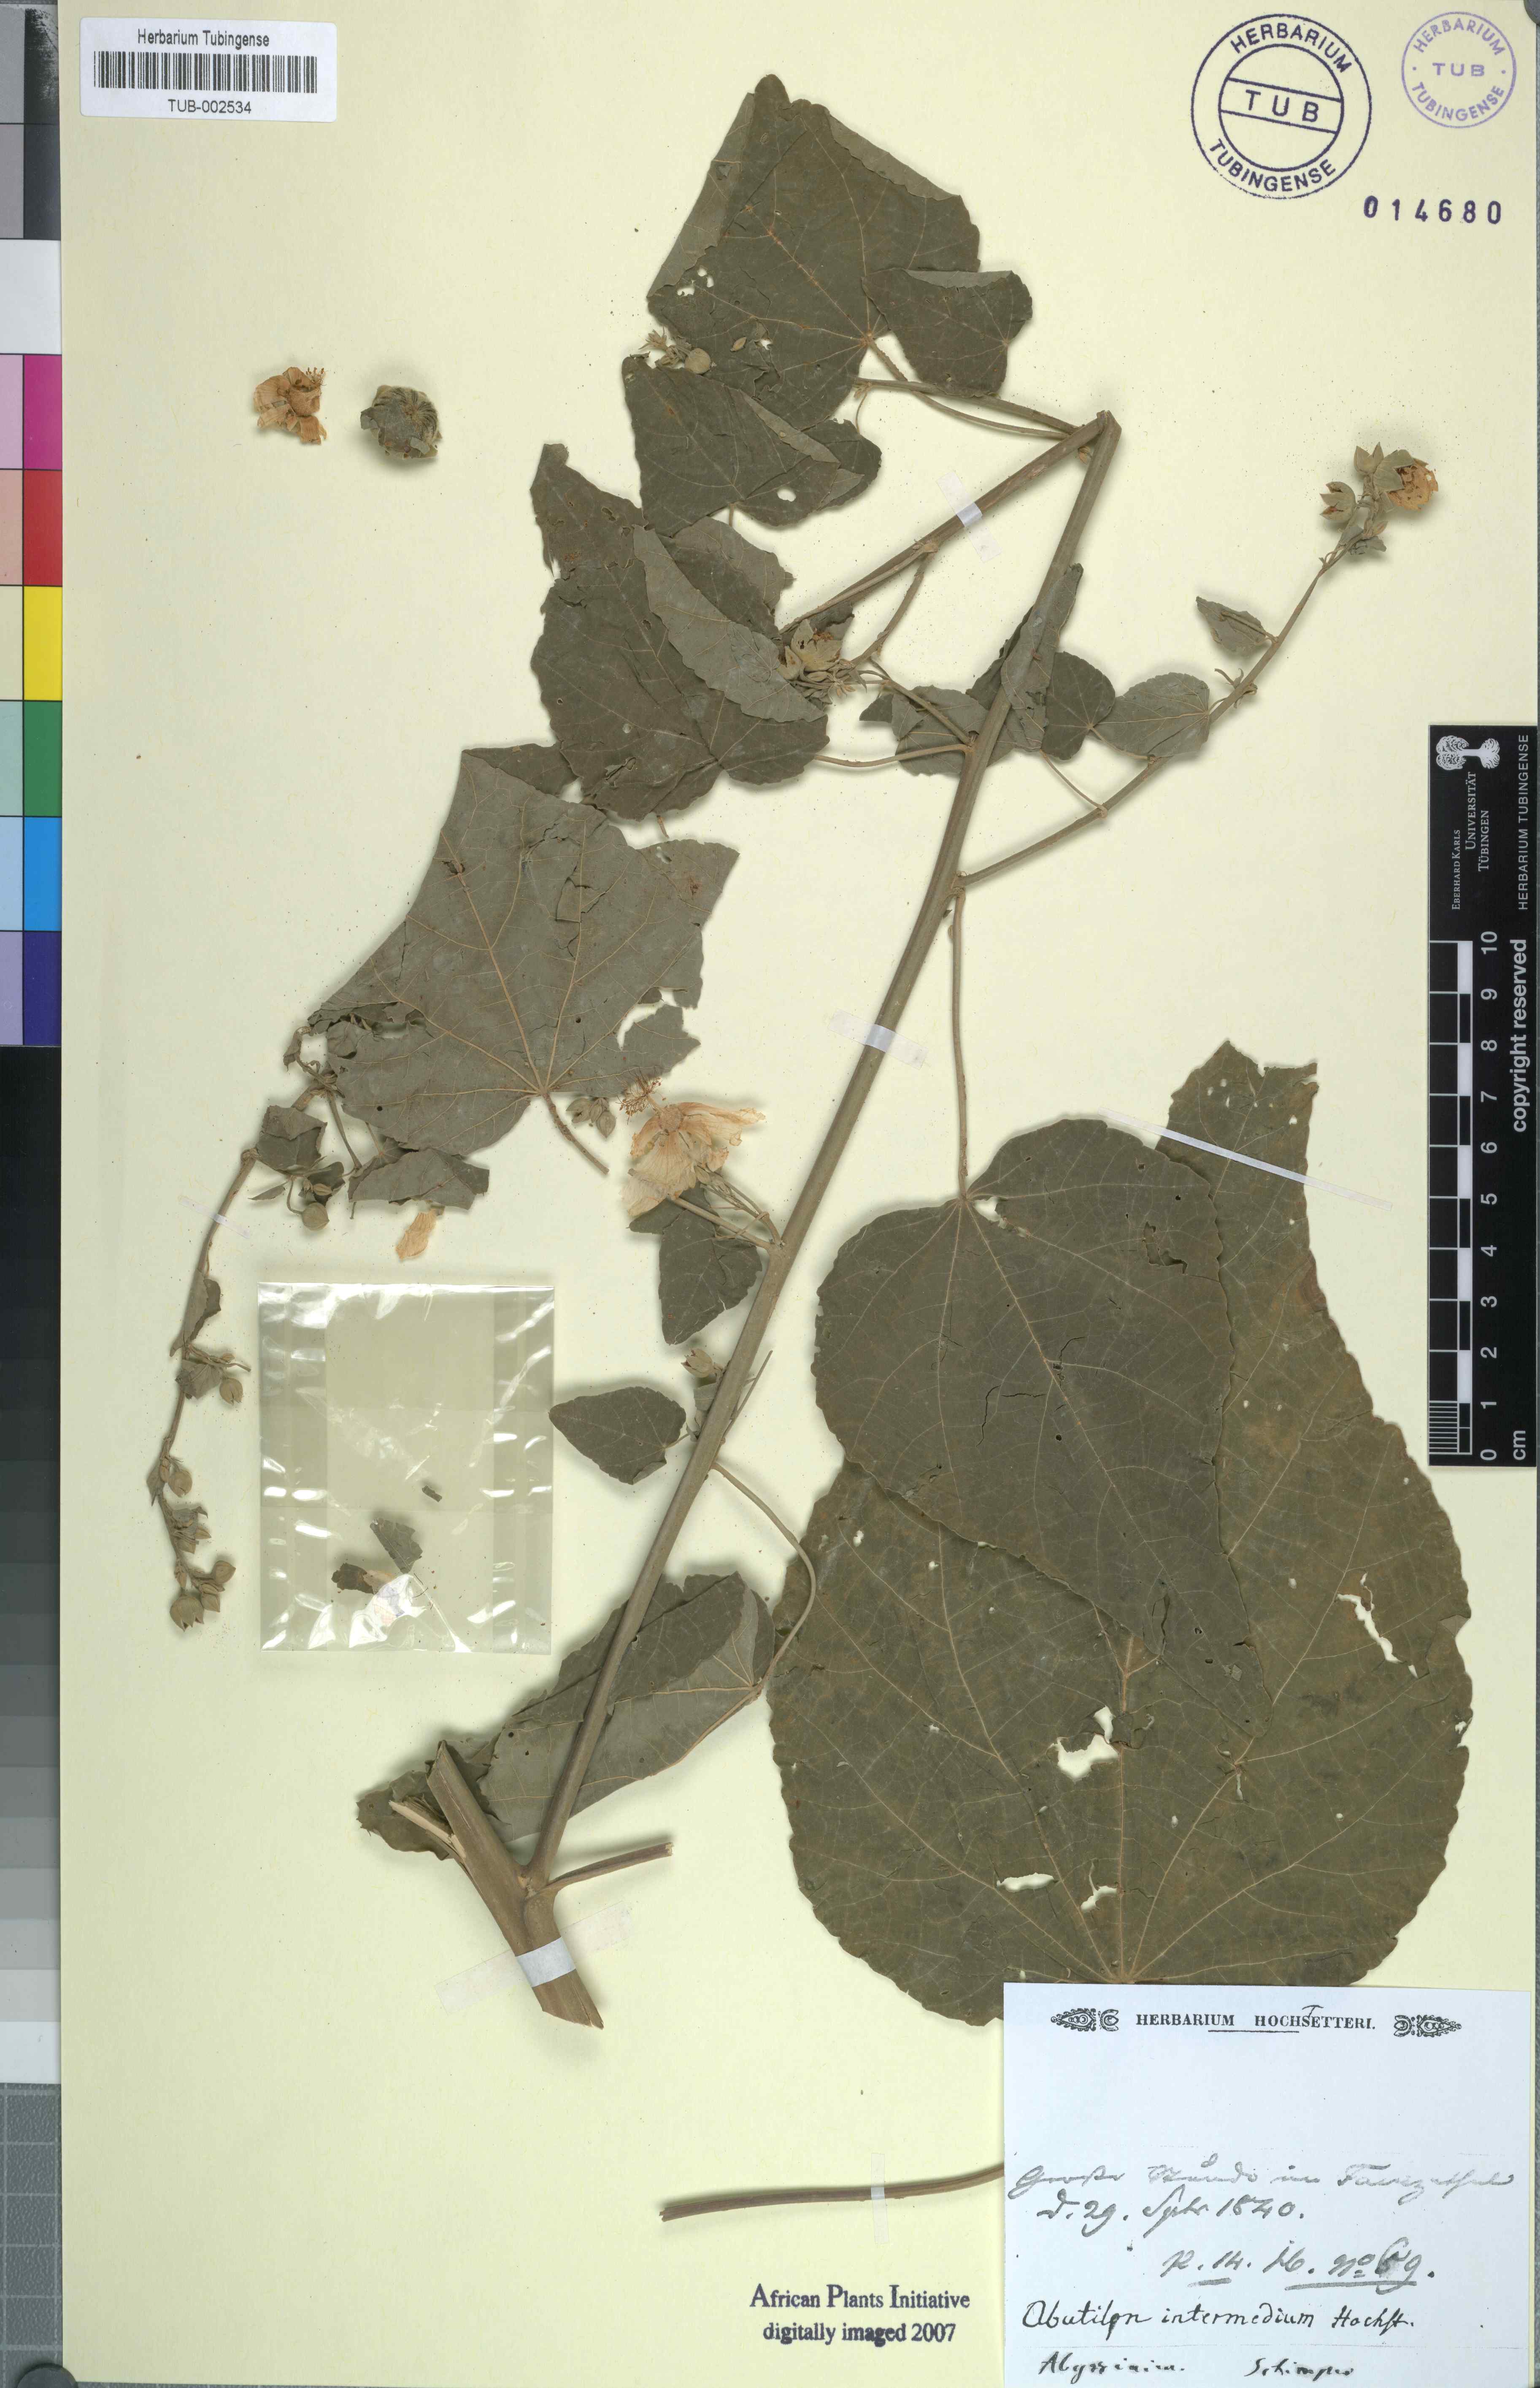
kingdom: Plantae
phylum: Tracheophyta
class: Magnoliopsida
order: Malvales
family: Malvaceae
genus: Abutilon
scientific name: Abutilon angulatum
